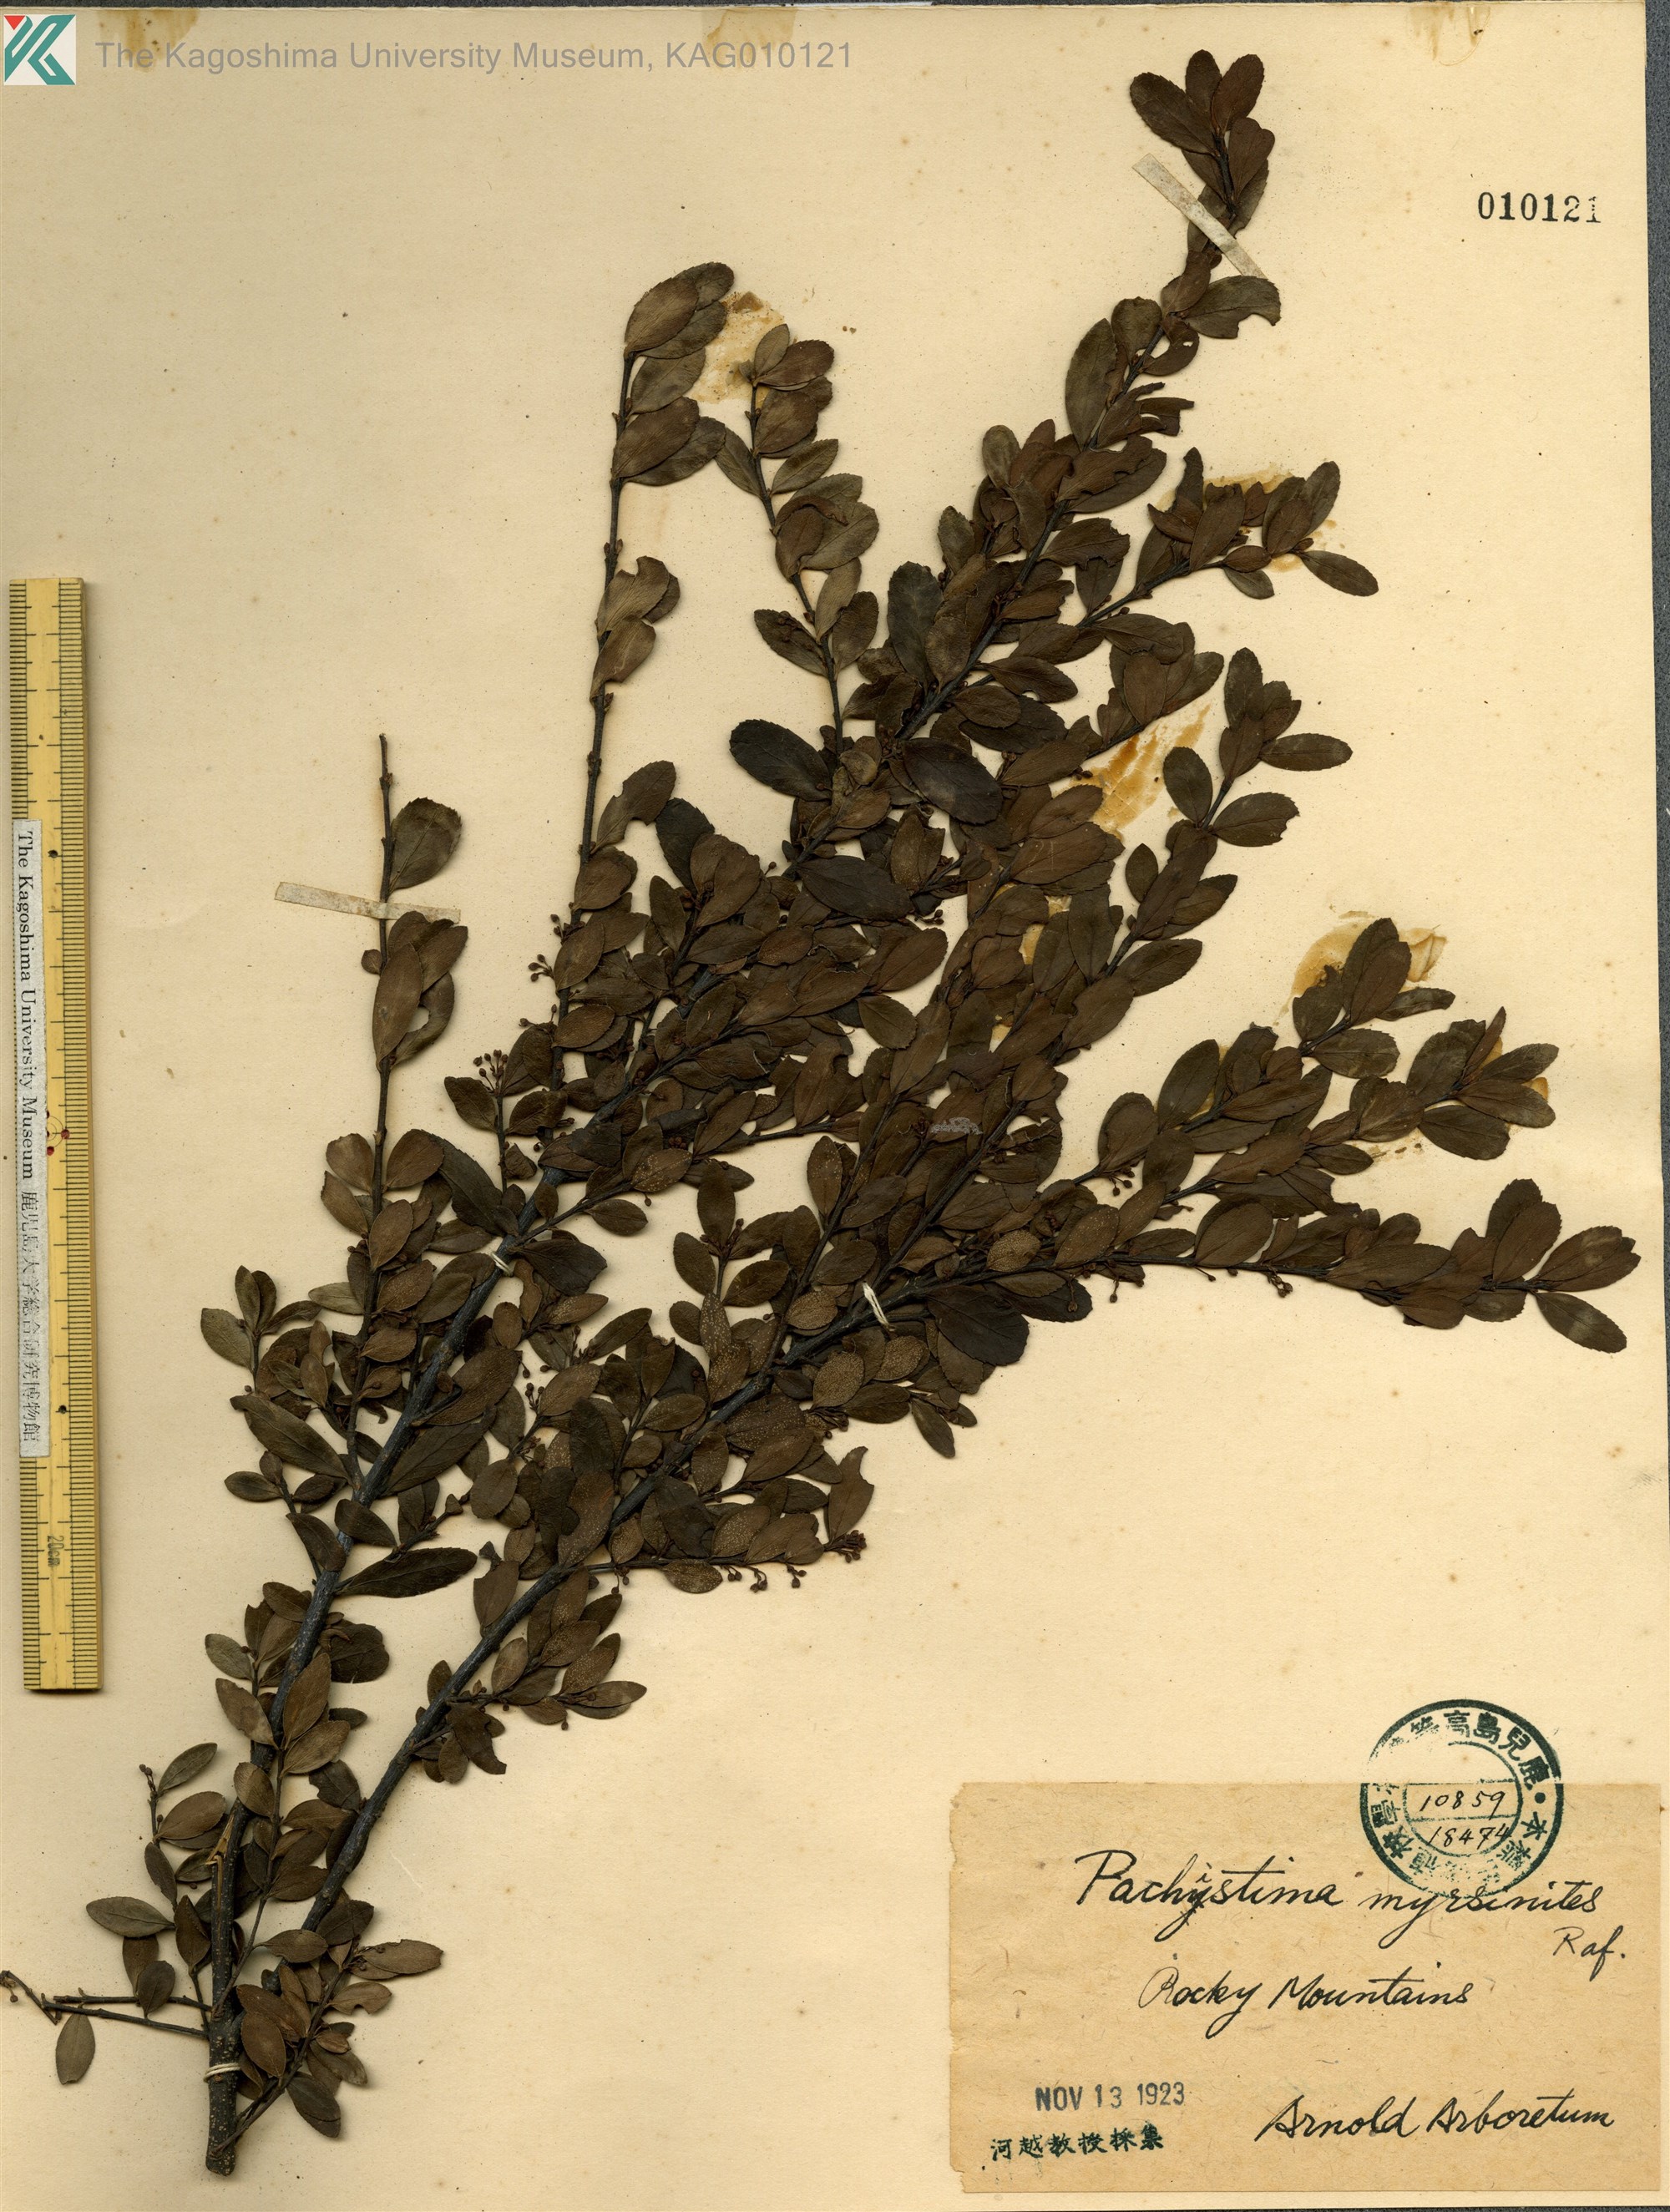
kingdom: Plantae
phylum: Tracheophyta
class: Magnoliopsida
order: Celastrales
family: Celastraceae
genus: Microtropis
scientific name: Microtropis japonica
